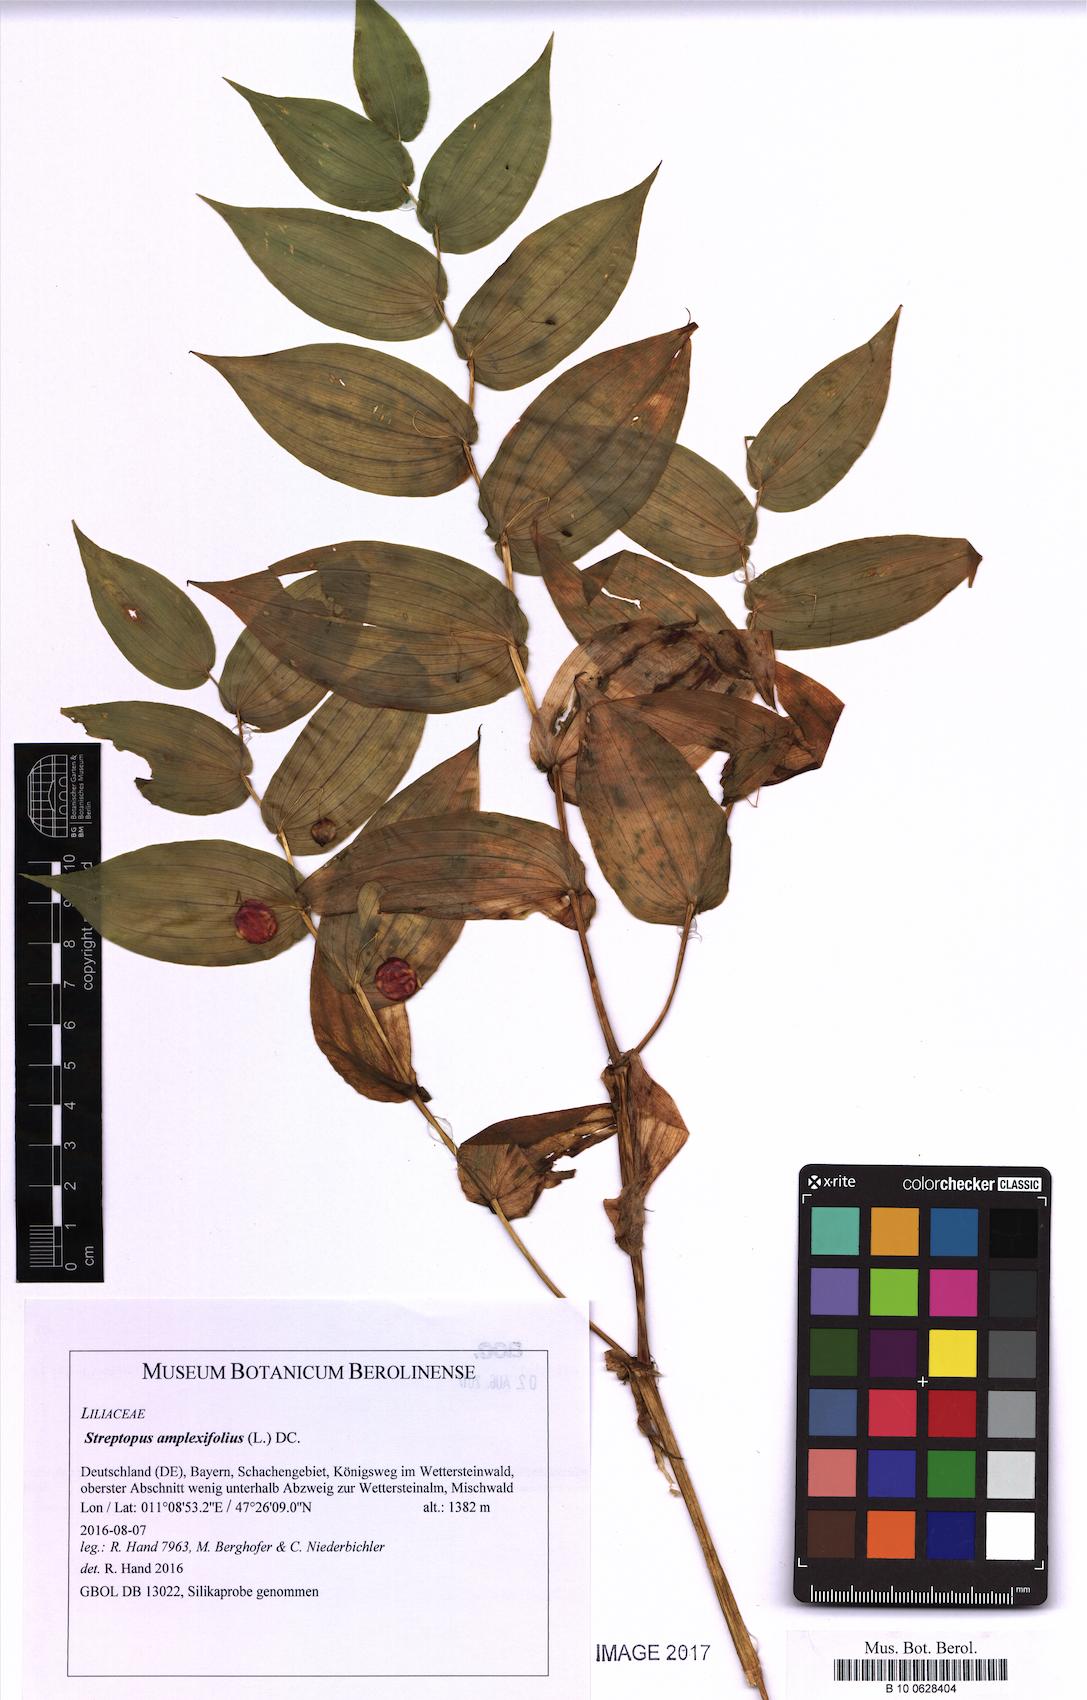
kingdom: Plantae
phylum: Tracheophyta
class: Liliopsida
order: Liliales
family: Liliaceae
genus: Streptopus
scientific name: Streptopus amplexifolius
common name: Clasp twisted stalk
